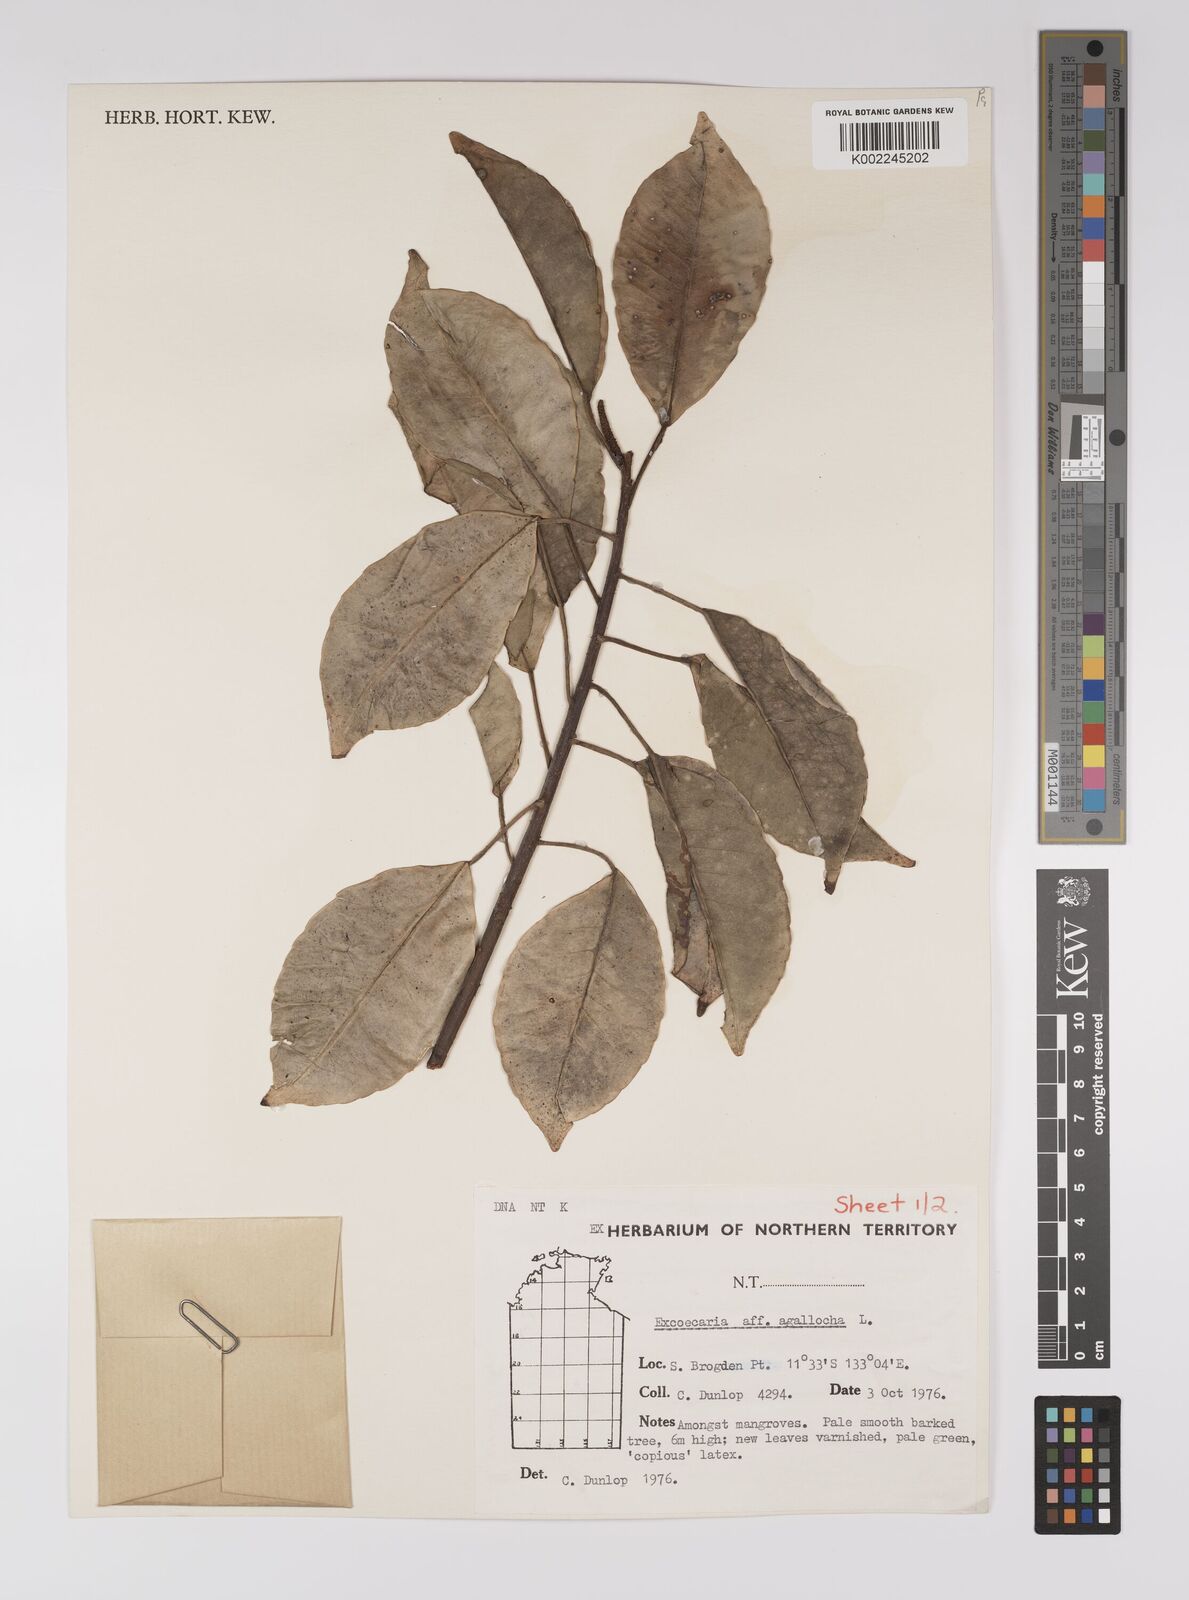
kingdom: Plantae
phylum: Tracheophyta
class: Magnoliopsida
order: Malpighiales
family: Euphorbiaceae
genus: Excoecaria
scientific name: Excoecaria agallocha
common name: River poisontree
